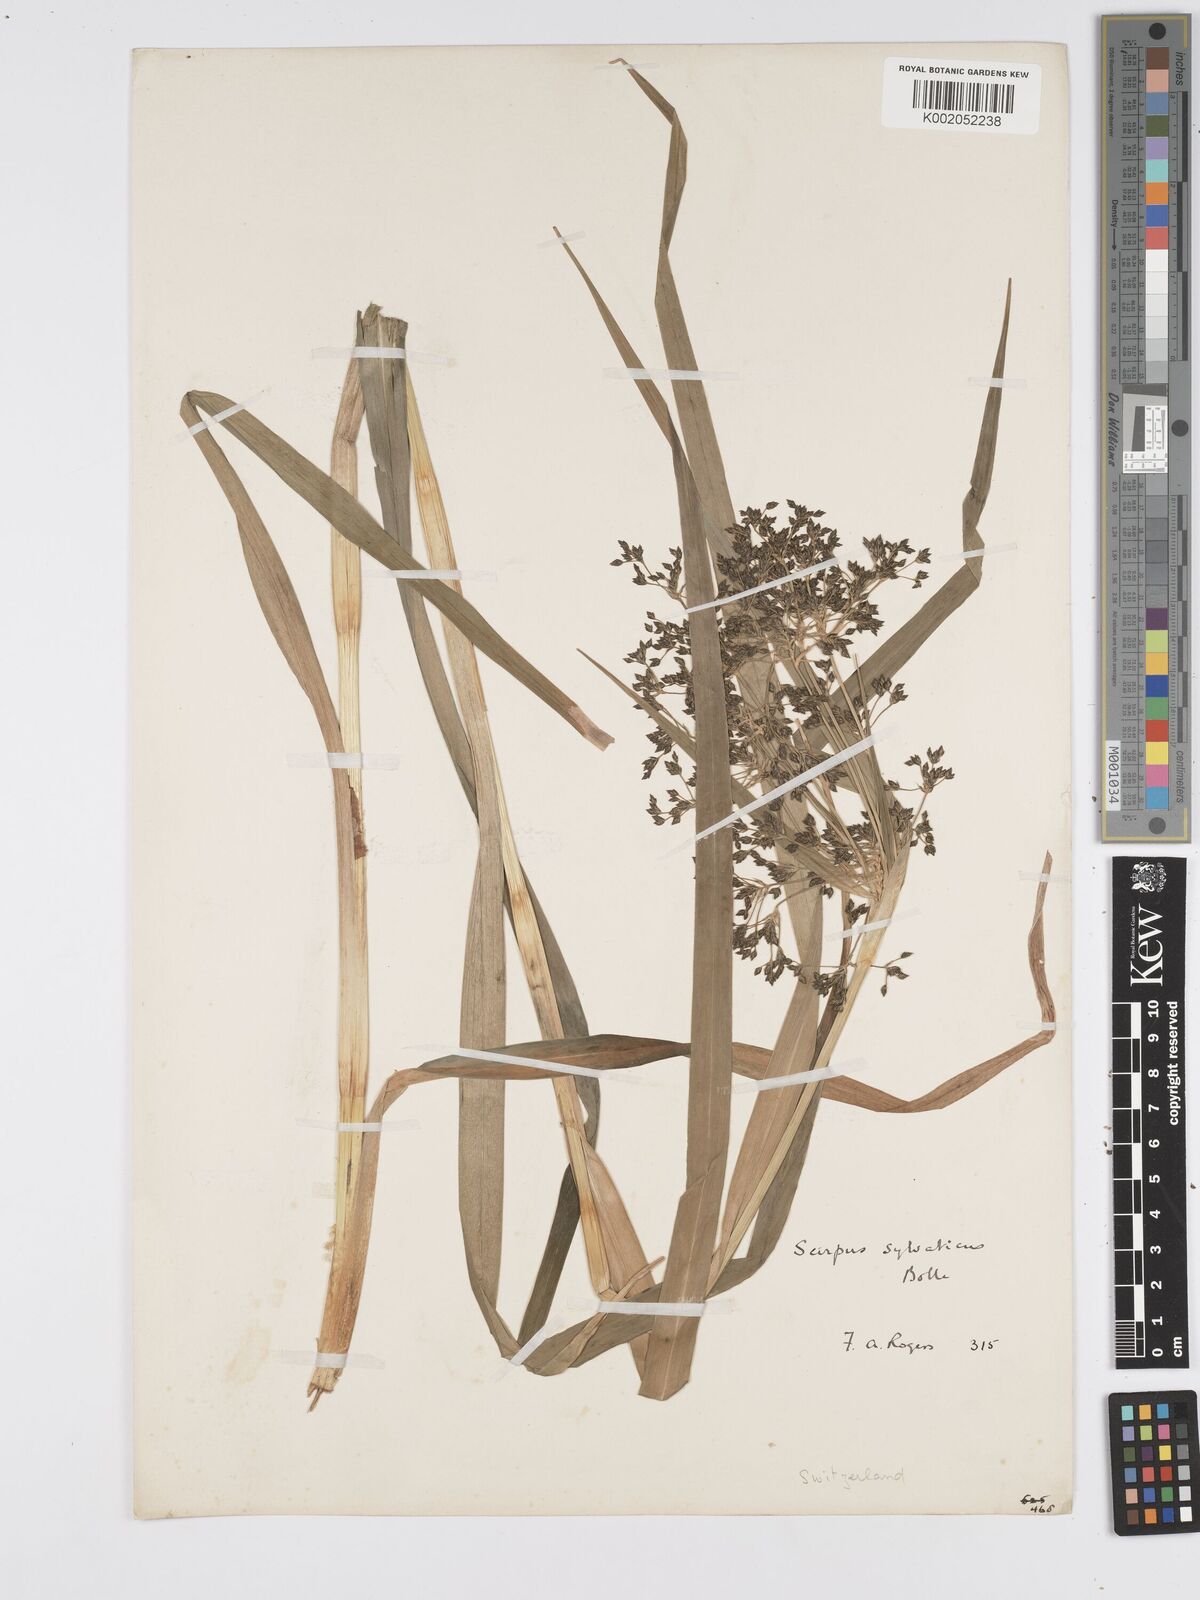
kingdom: Plantae
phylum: Tracheophyta
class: Liliopsida
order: Poales
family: Cyperaceae
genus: Scirpus
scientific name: Scirpus sylvaticus
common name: Wood club-rush
